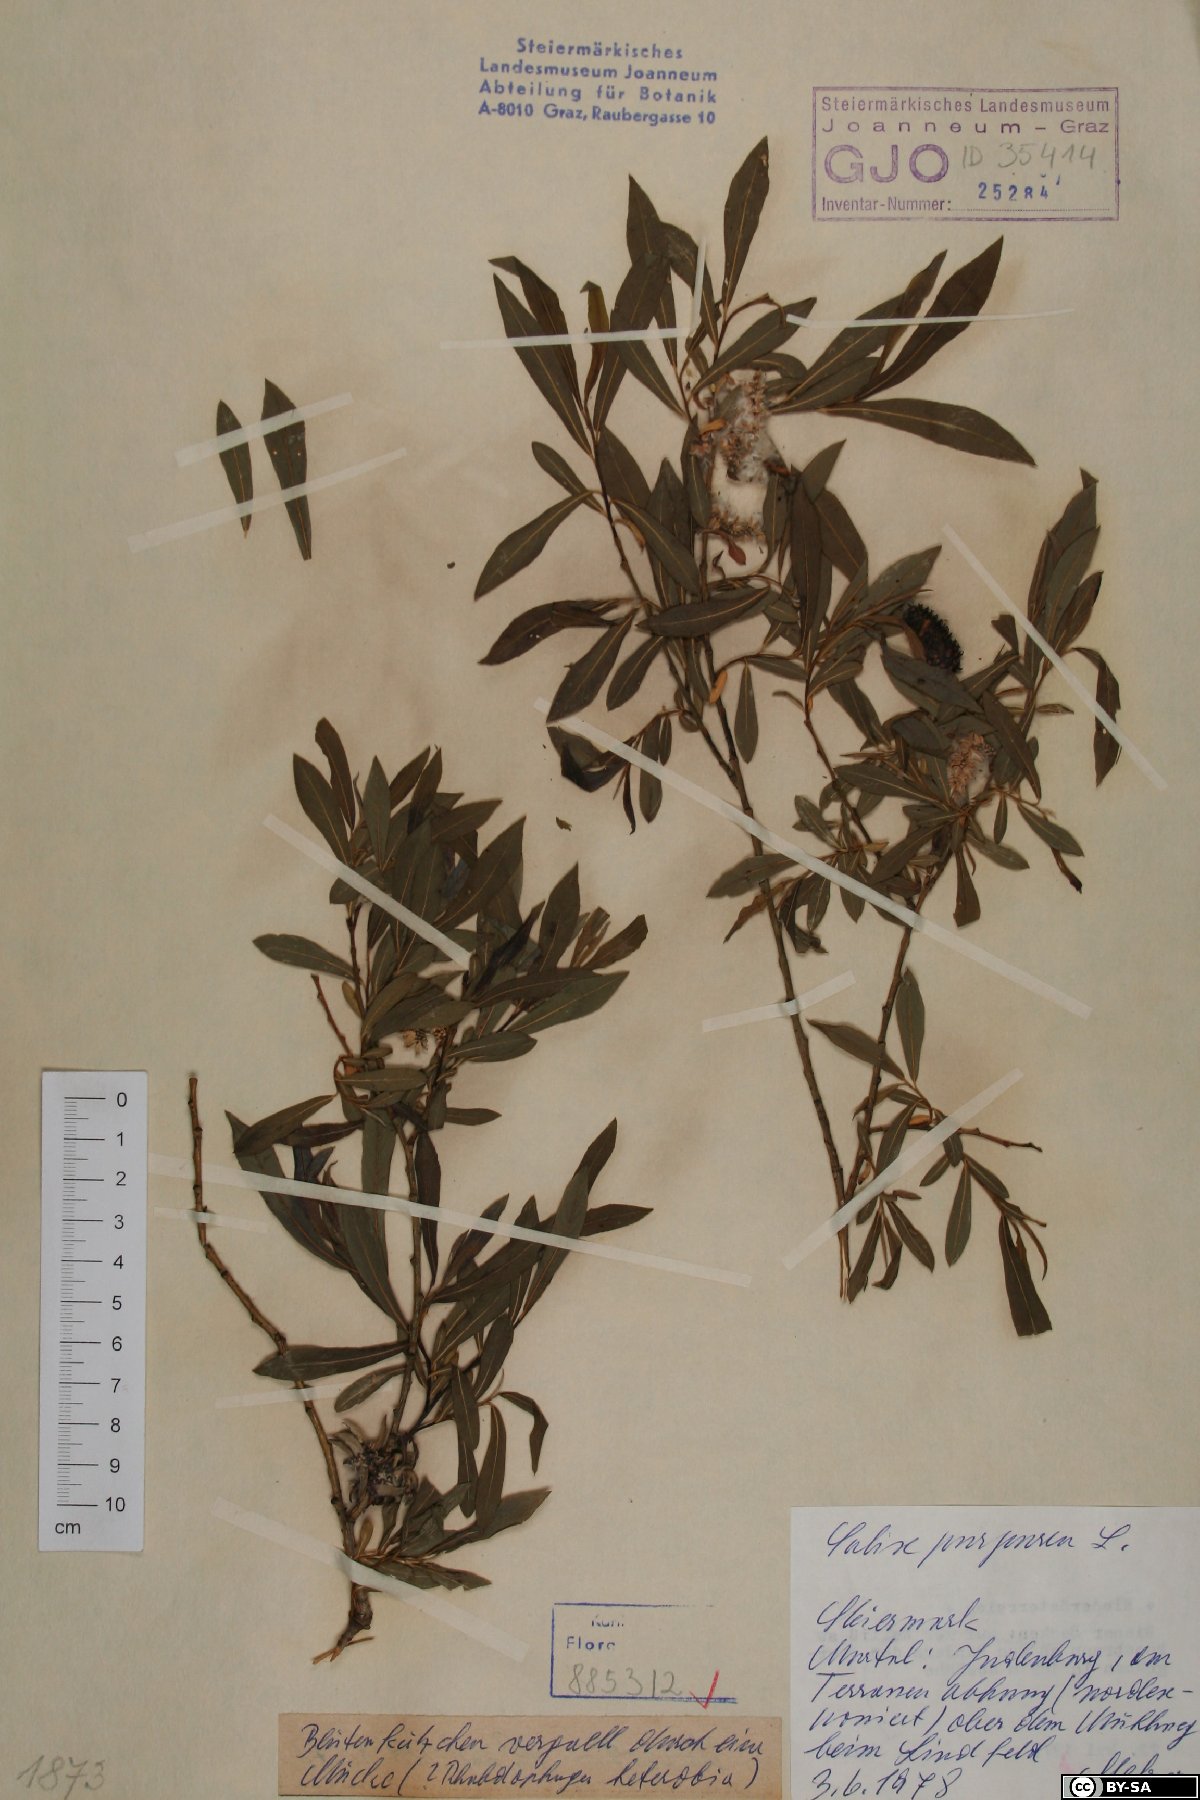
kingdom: Plantae
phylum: Tracheophyta
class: Magnoliopsida
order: Malpighiales
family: Salicaceae
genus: Salix
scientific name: Salix purpurea
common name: Purple willow
